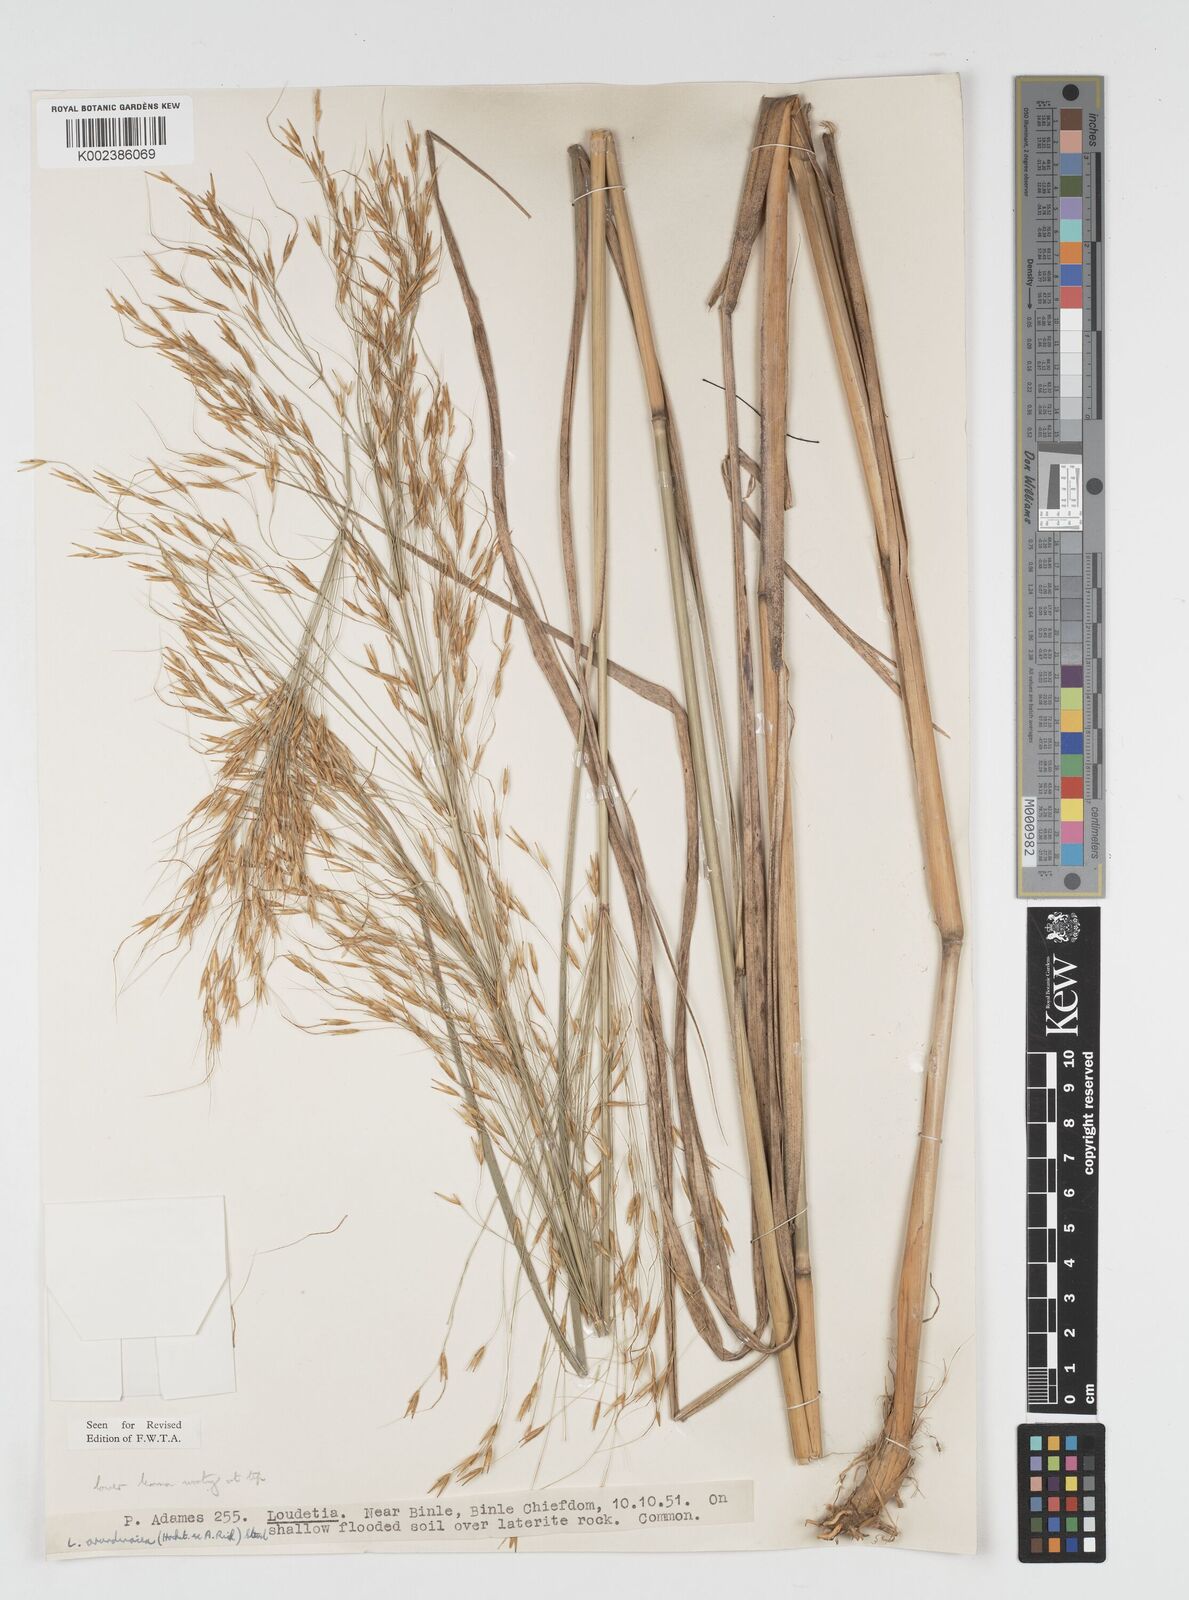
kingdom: Plantae
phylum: Tracheophyta
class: Liliopsida
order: Poales
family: Poaceae
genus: Loudetia
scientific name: Loudetia arundinacea
